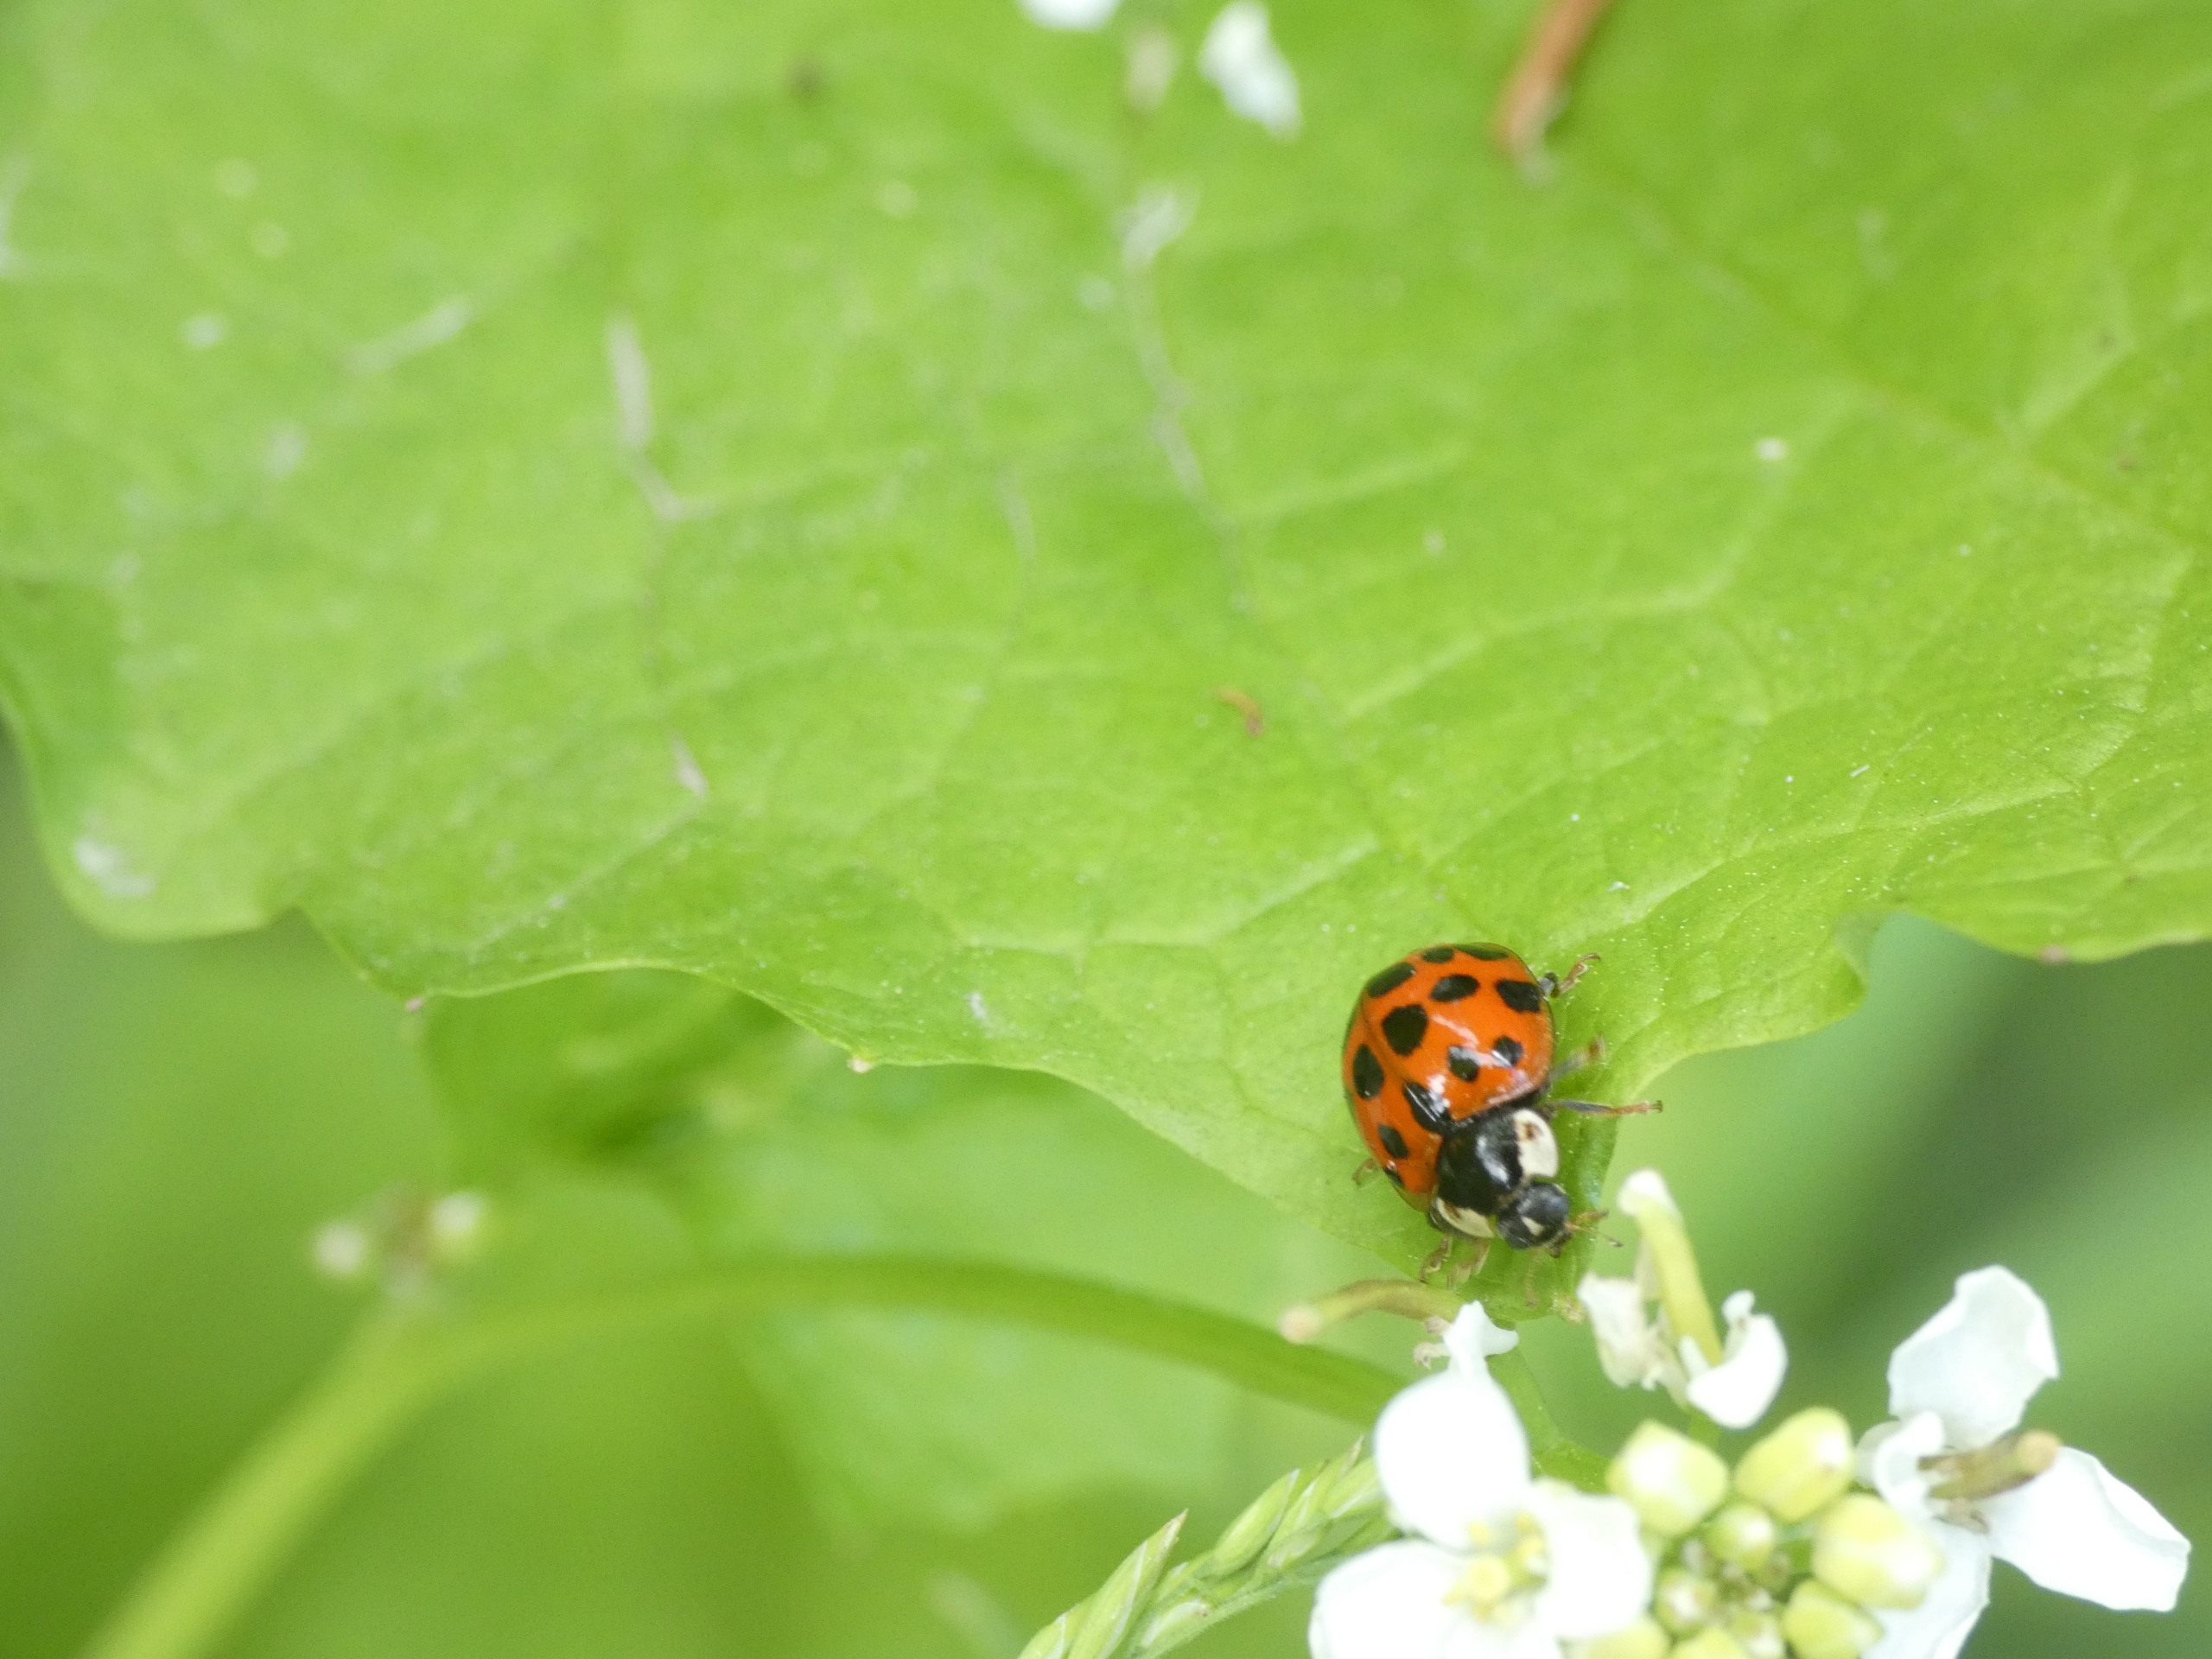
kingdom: Animalia
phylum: Arthropoda
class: Insecta
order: Coleoptera
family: Coccinellidae
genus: Harmonia
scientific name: Harmonia axyridis
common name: Harlekinmariehøne
